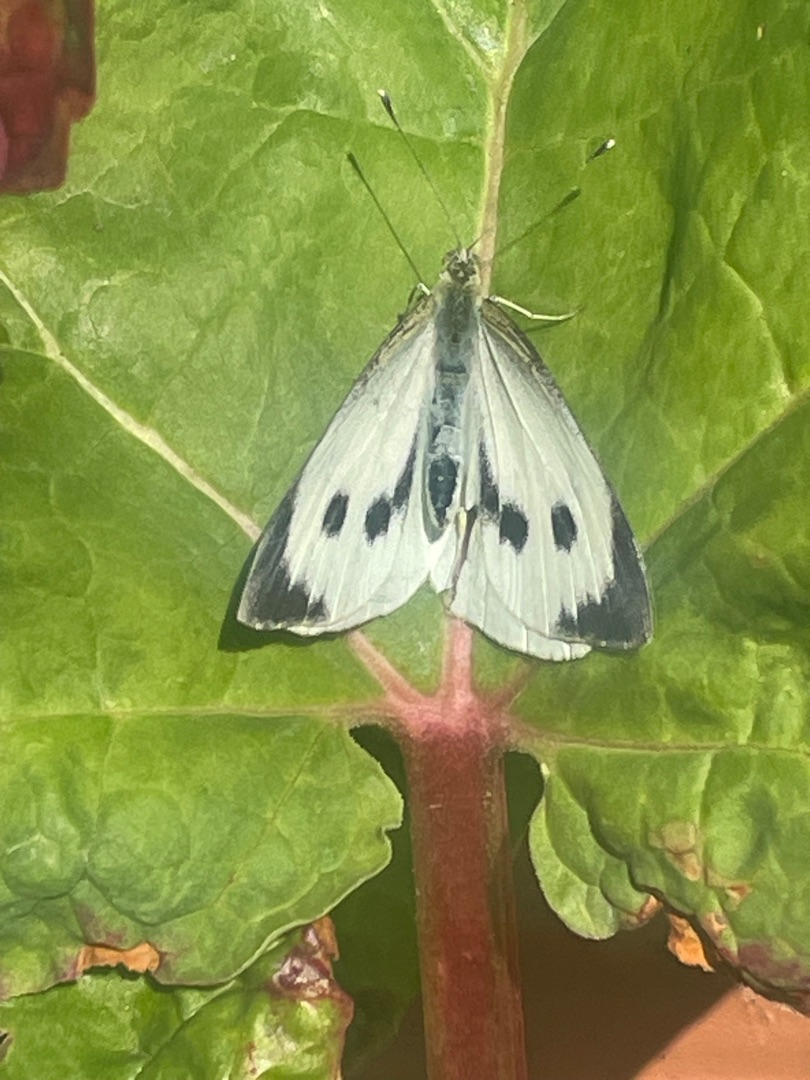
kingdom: Animalia
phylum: Arthropoda
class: Insecta
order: Lepidoptera
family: Pieridae
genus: Pieris
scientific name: Pieris brassicae
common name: Stor kålsommerfugl
